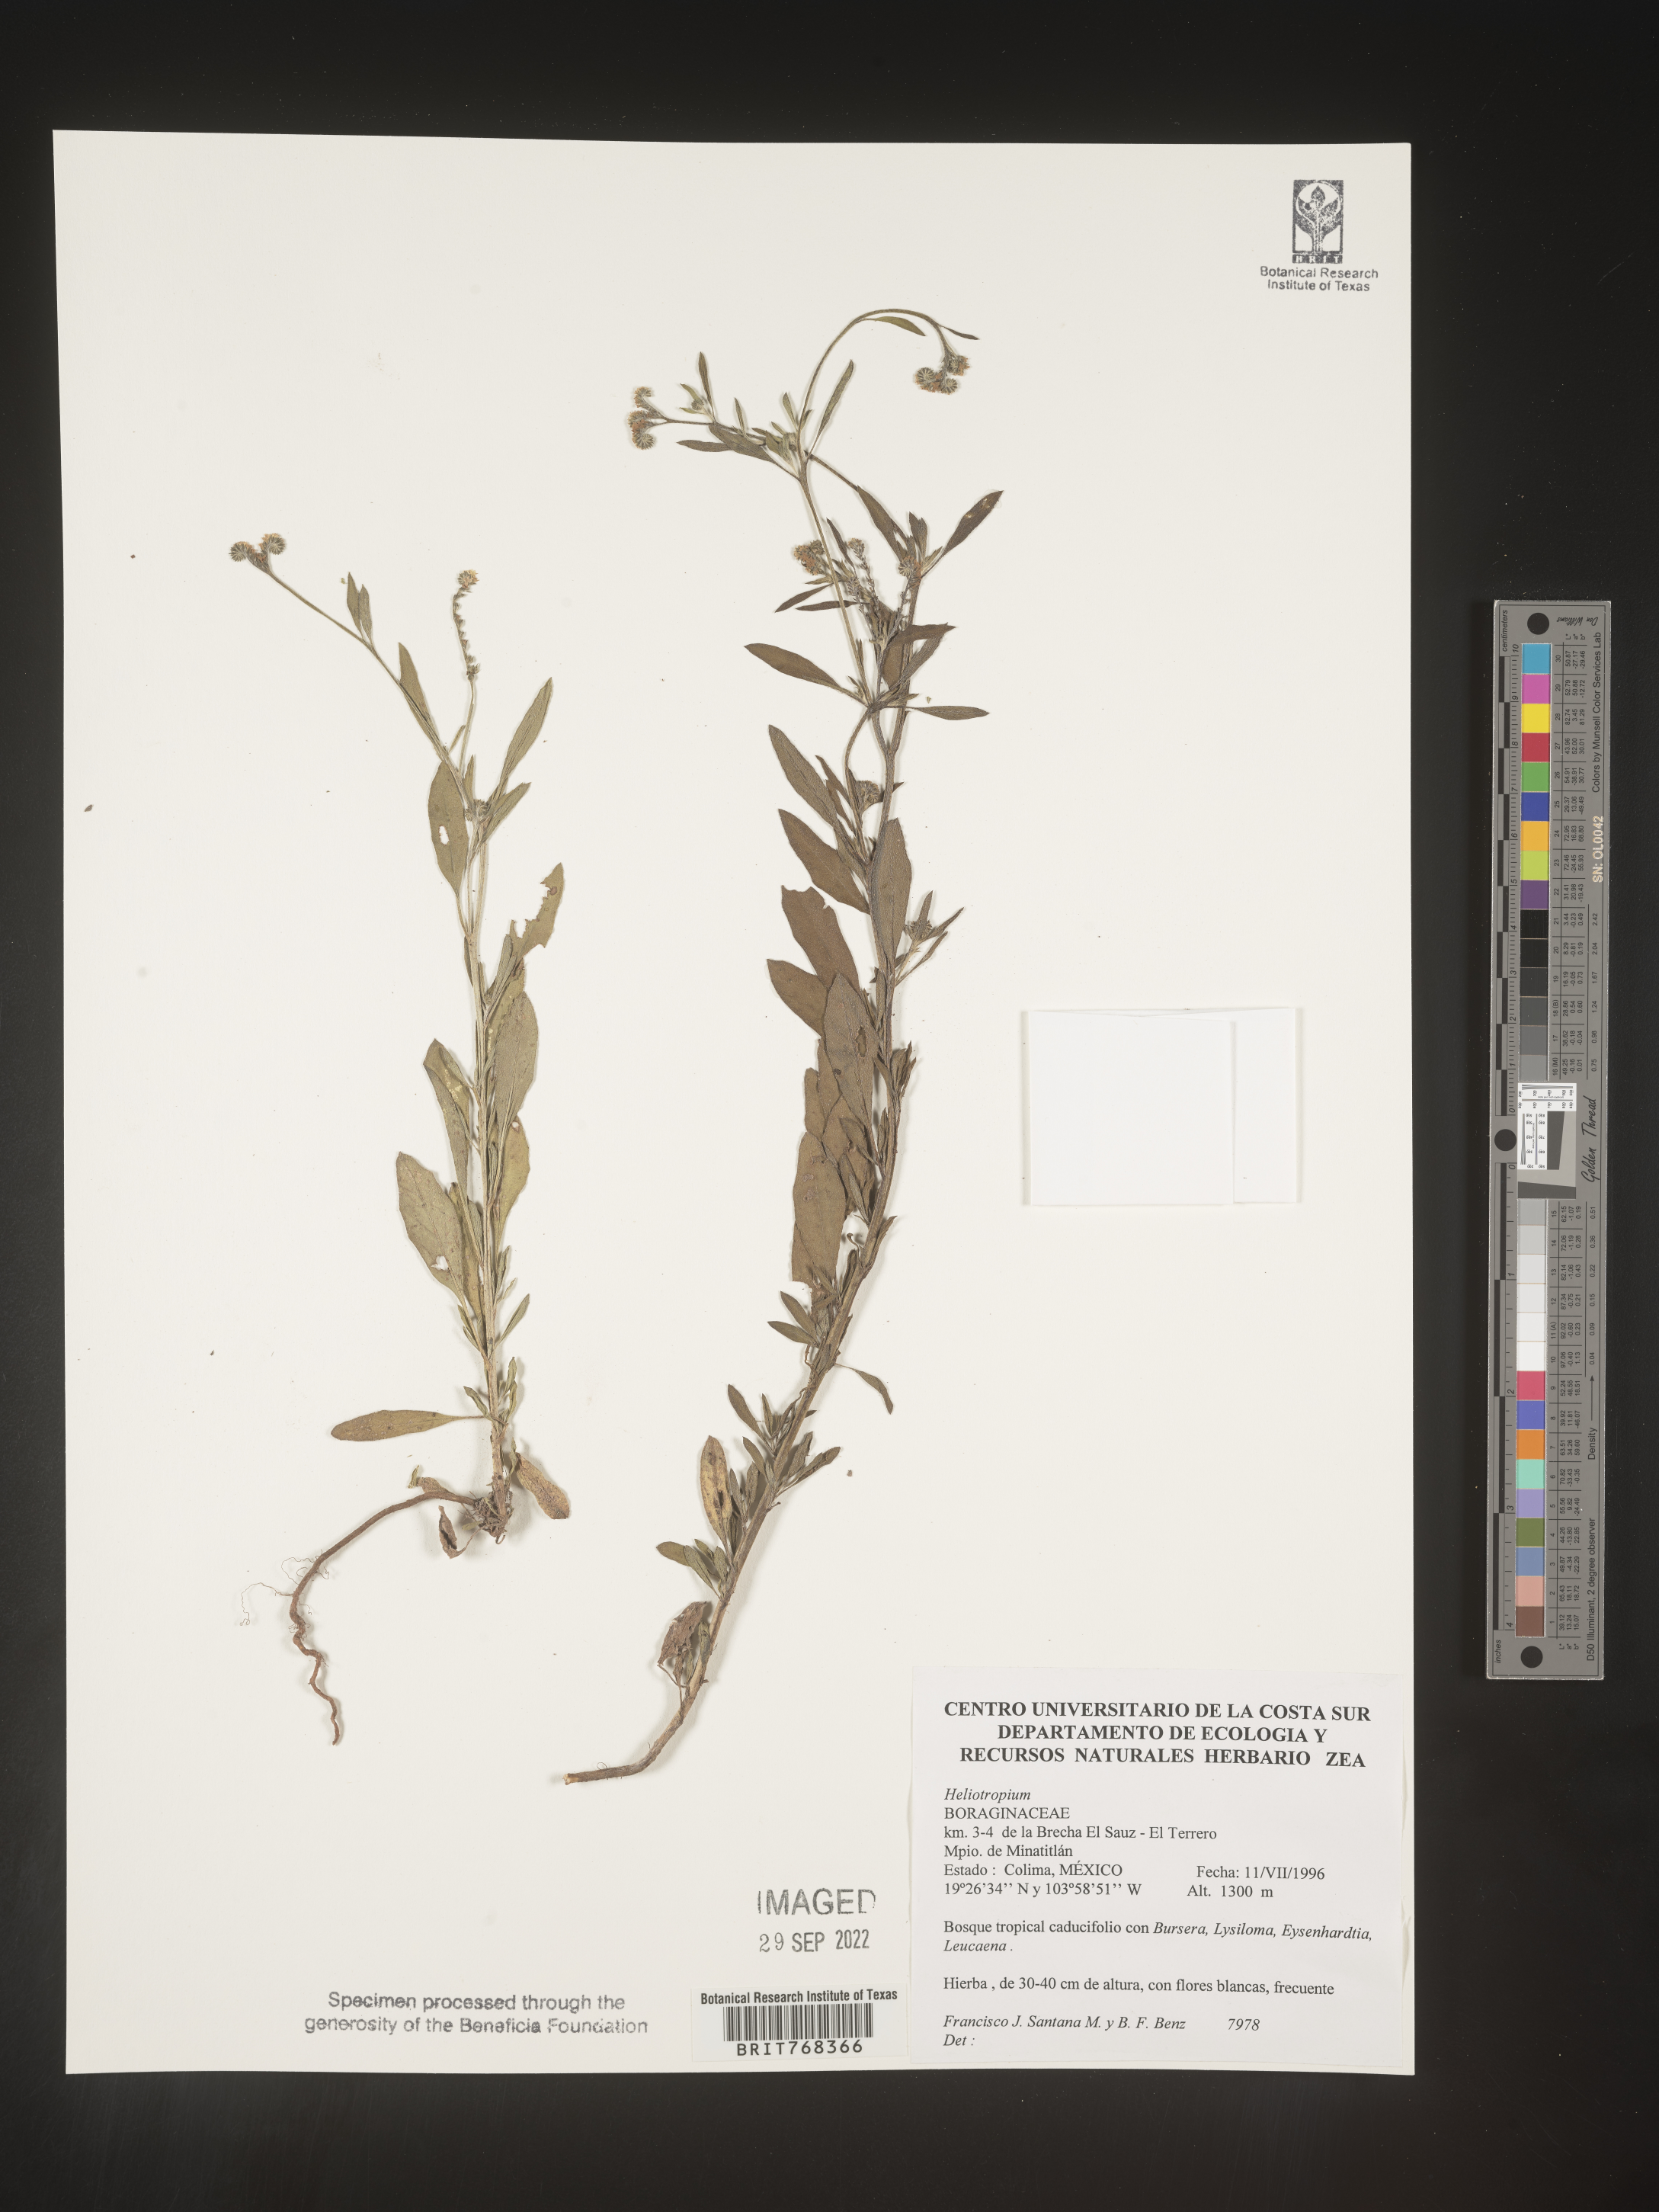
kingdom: Plantae
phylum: Tracheophyta
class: Magnoliopsida
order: Boraginales
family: Heliotropiaceae
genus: Heliotropium
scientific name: Heliotropium
